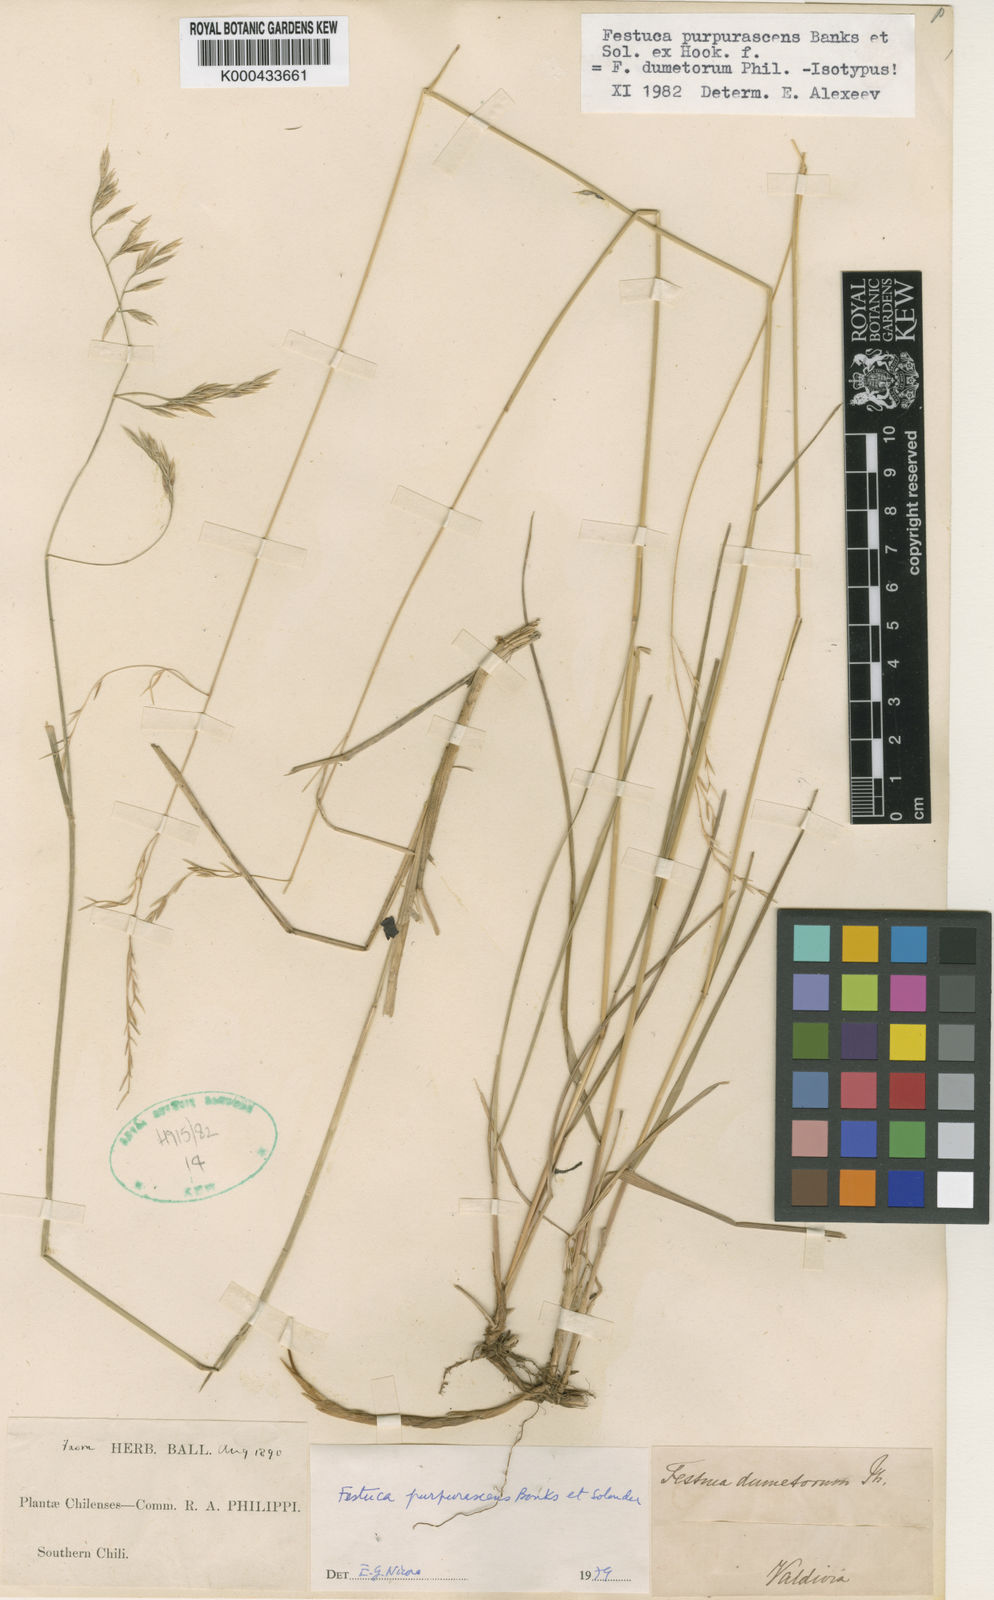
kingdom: Plantae
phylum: Tracheophyta
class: Liliopsida
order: Poales
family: Poaceae
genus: Festuca
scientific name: Festuca purpurascens
